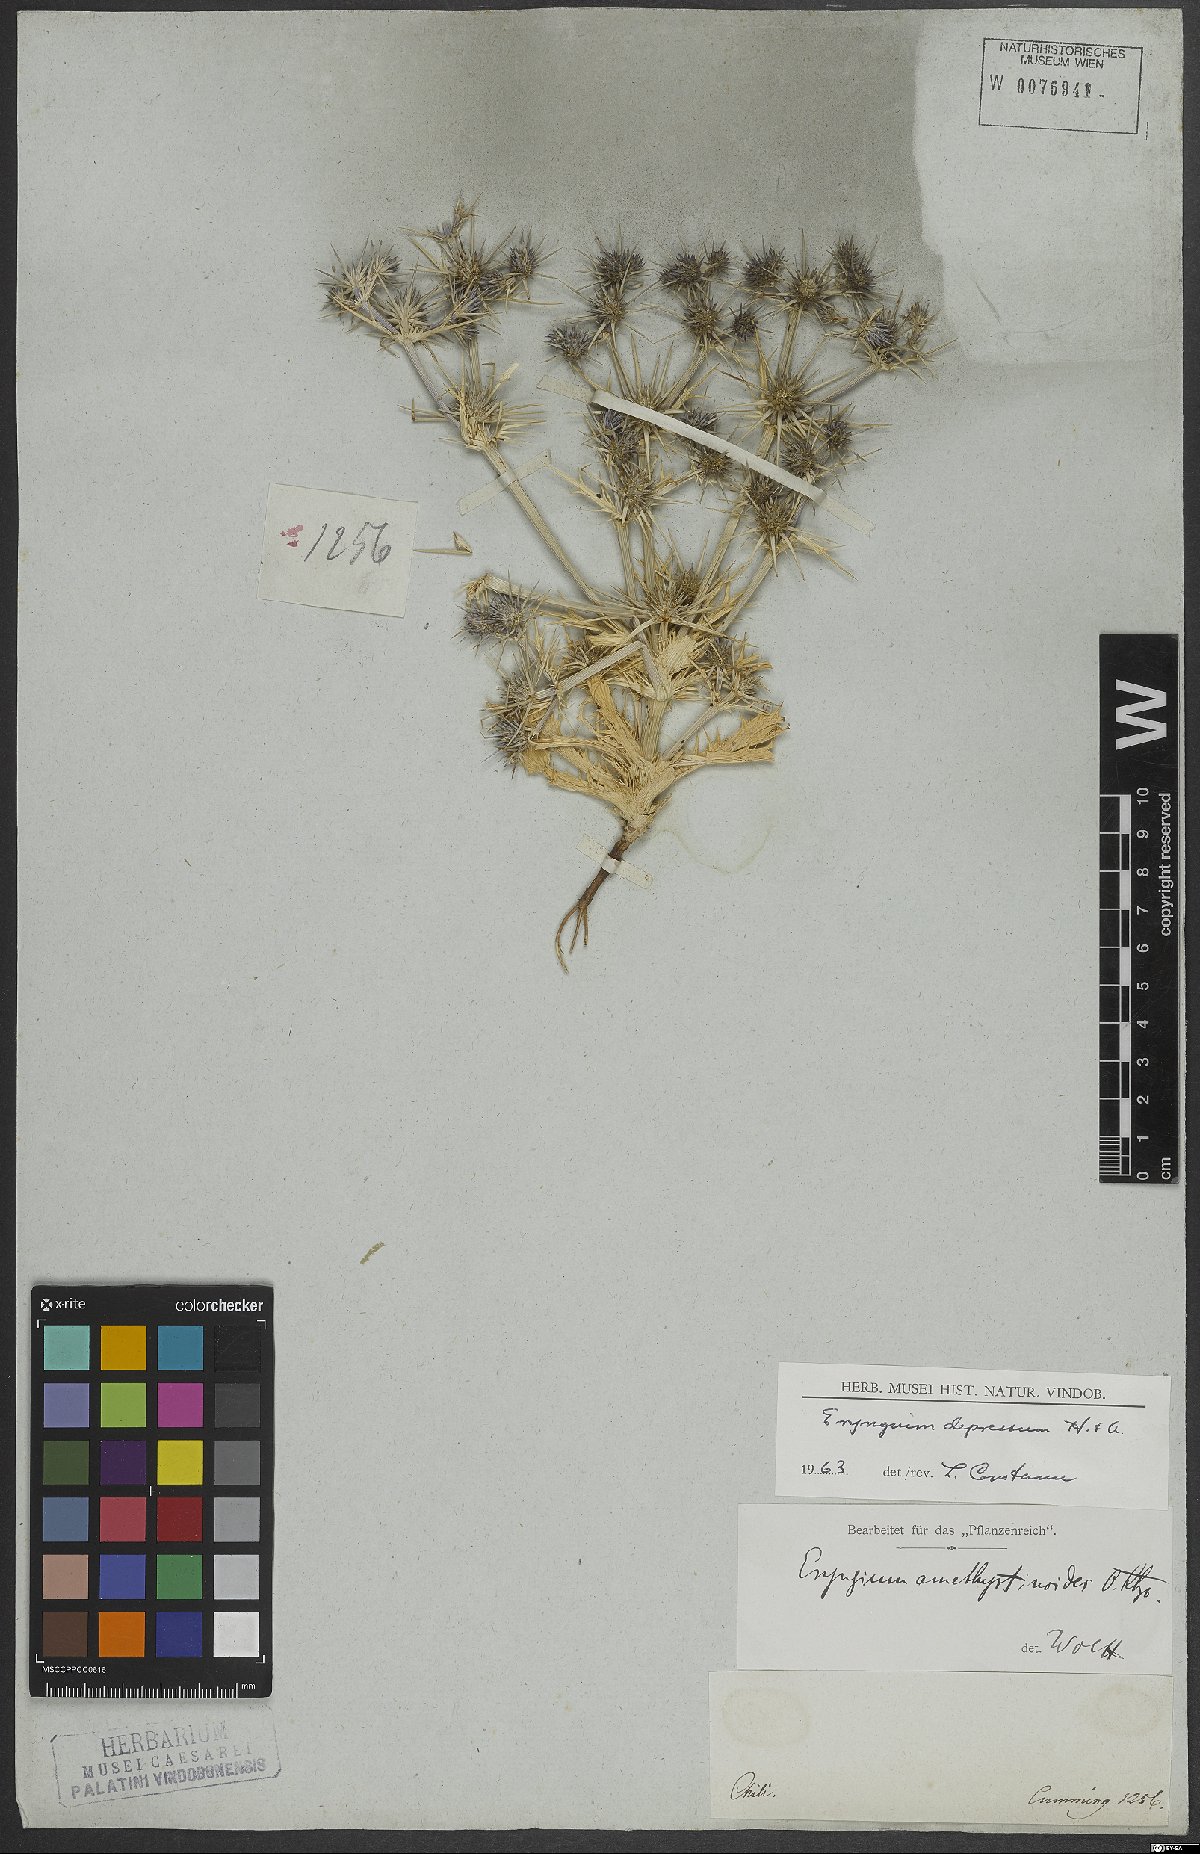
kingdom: Plantae
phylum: Tracheophyta
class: Magnoliopsida
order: Apiales
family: Apiaceae
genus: Eryngium
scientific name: Eryngium depressum
